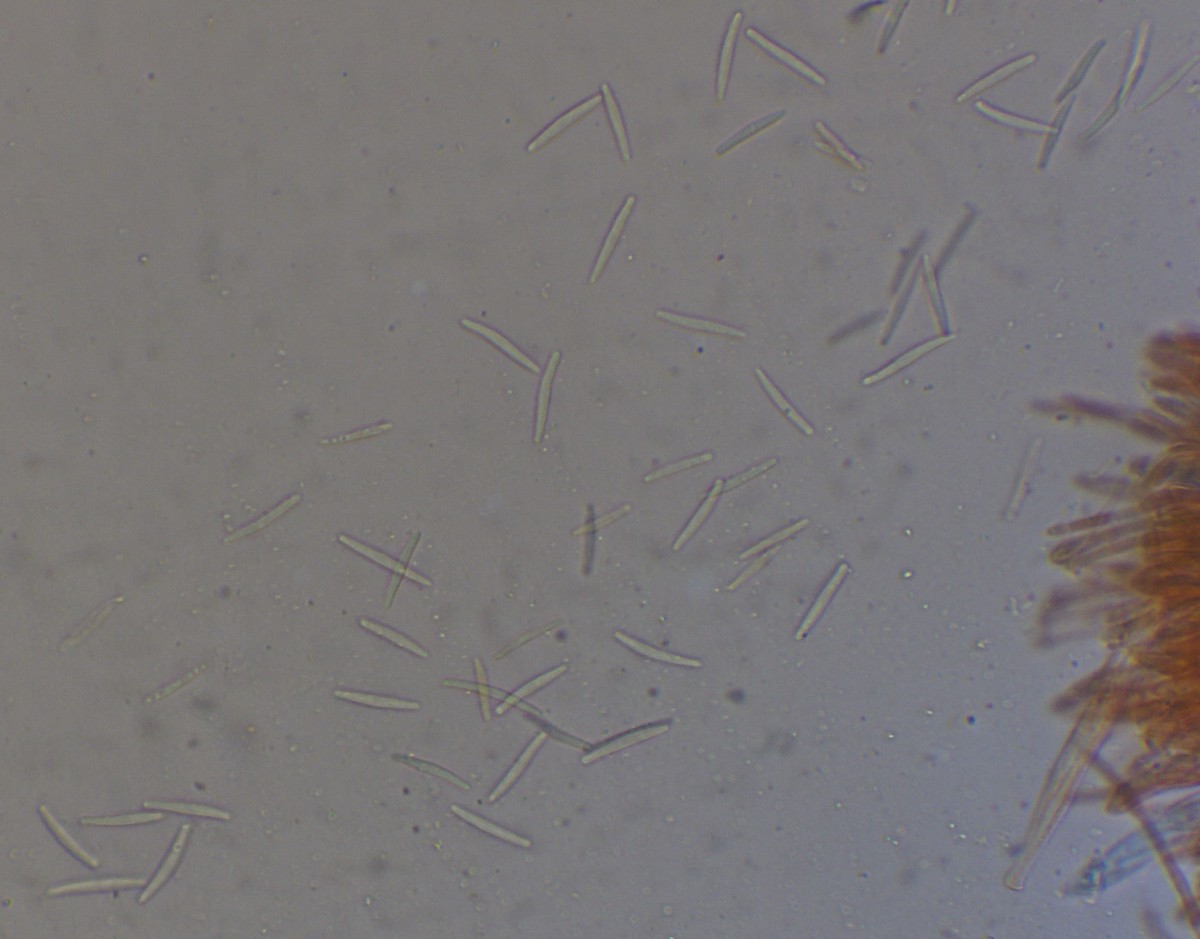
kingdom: Fungi
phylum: Ascomycota
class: Leotiomycetes
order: Helotiales
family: Ploettnerulaceae
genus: Pirottaea
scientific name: Pirottaea lychnidis
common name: pragtstjerne-kerneskive
